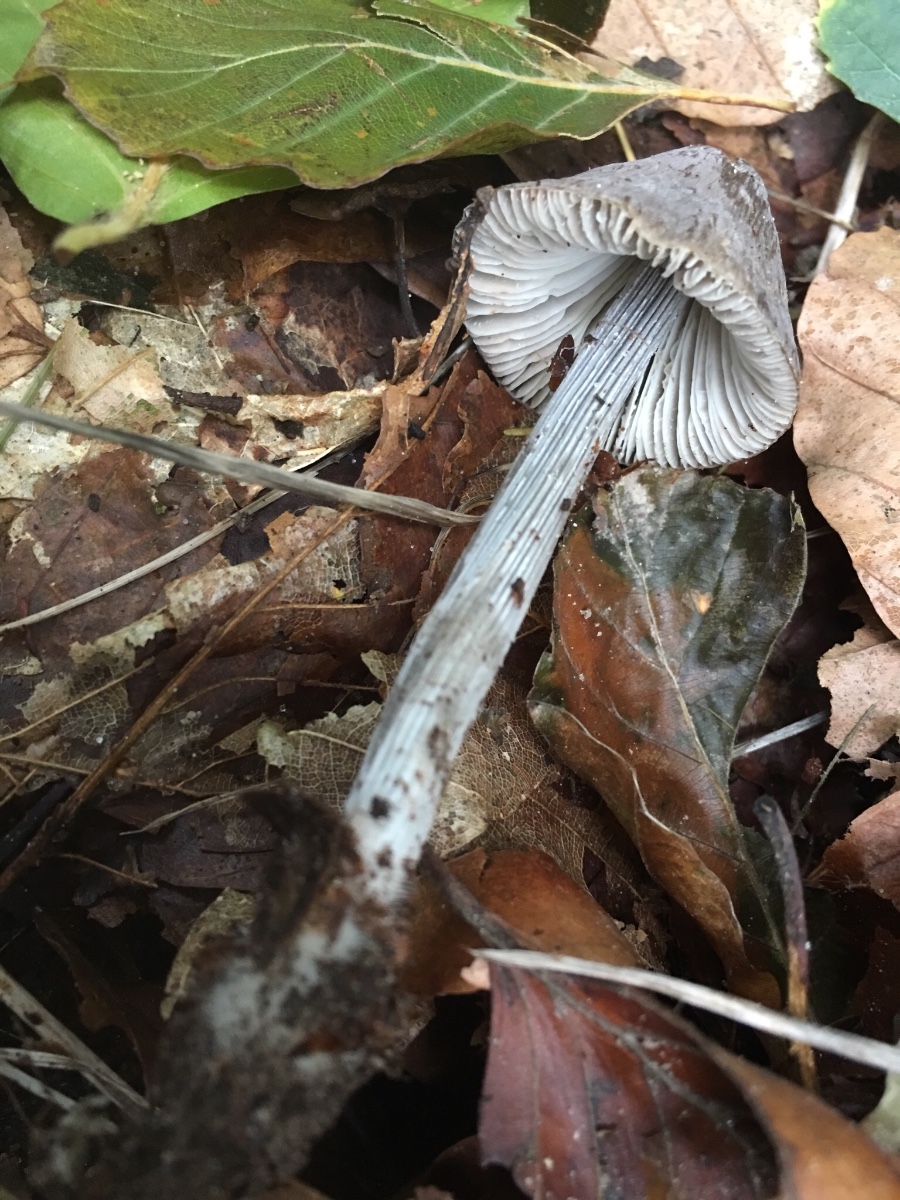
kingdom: Fungi
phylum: Basidiomycota
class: Agaricomycetes
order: Agaricales
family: Mycenaceae
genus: Mycena
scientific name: Mycena polygramma
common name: mangestribet huesvamp
